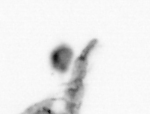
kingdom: Animalia
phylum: Arthropoda
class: Copepoda
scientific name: Copepoda
